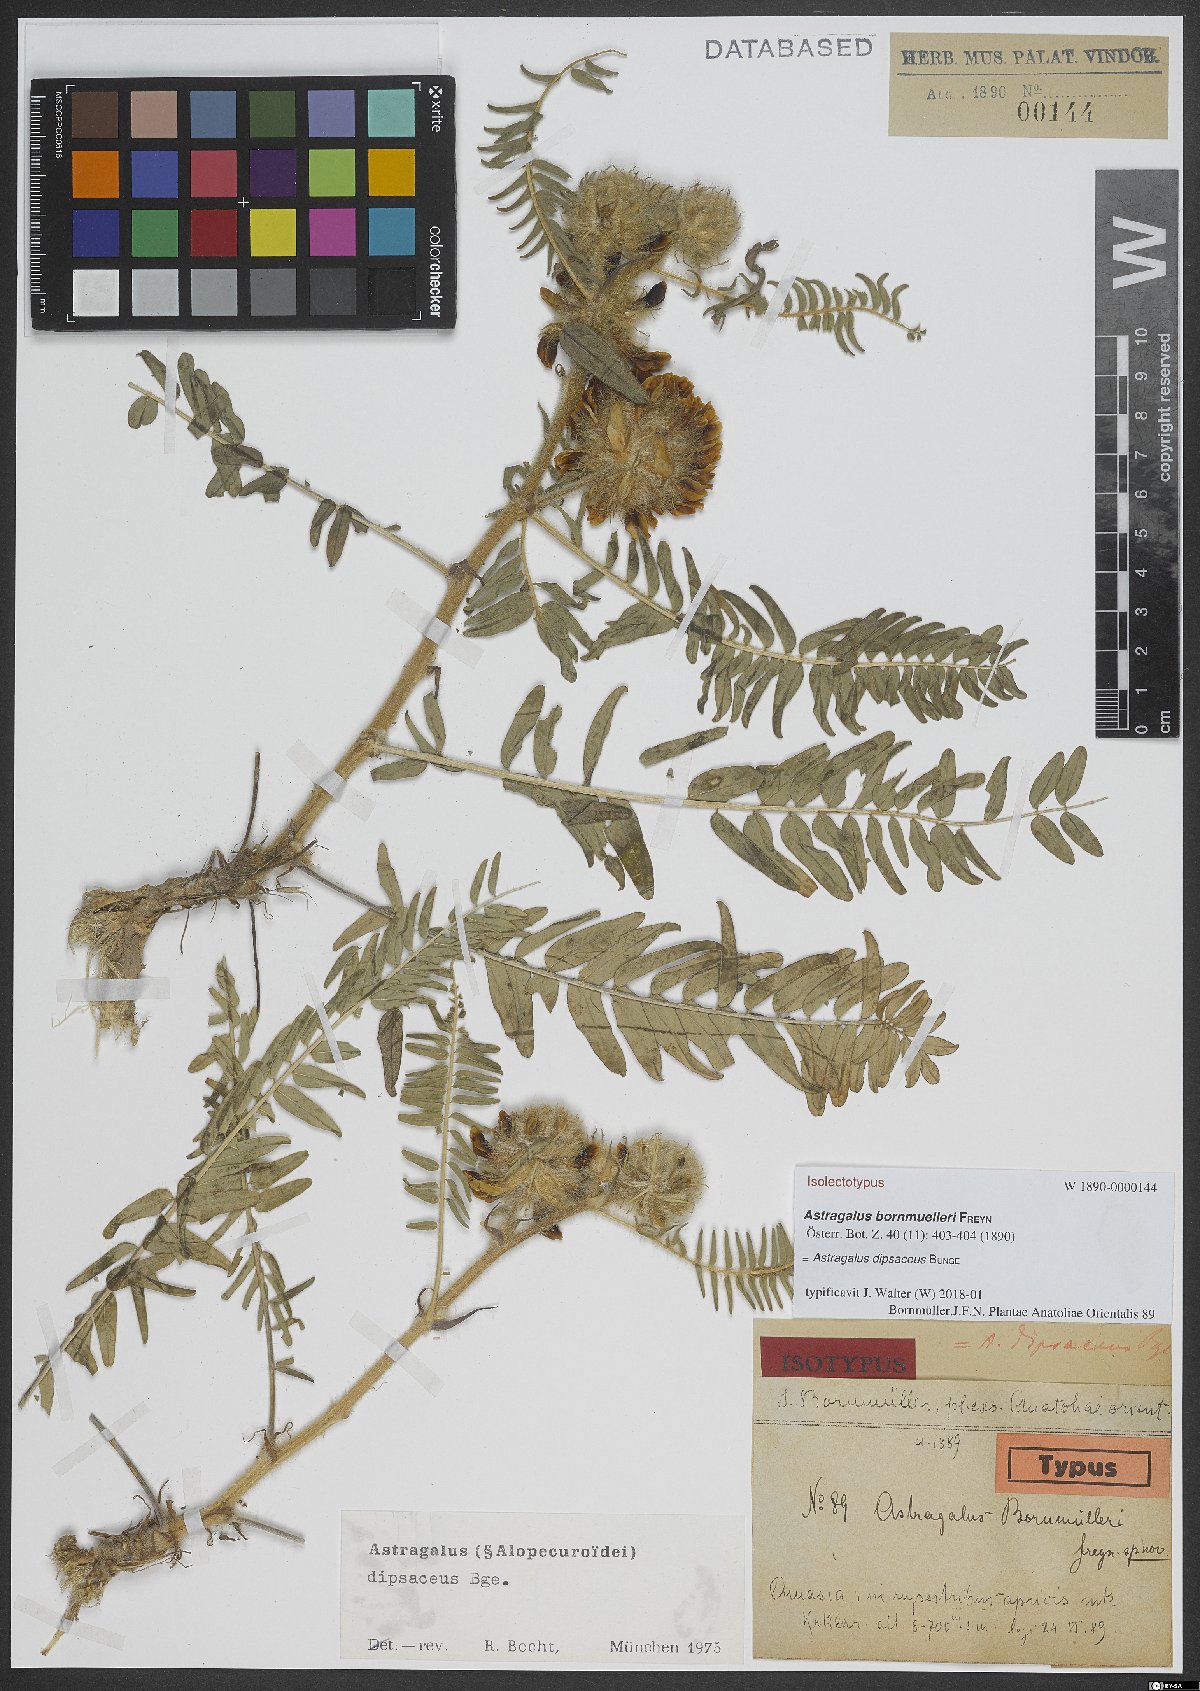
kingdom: Plantae
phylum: Tracheophyta
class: Magnoliopsida
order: Fabales
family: Fabaceae
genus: Astragalus
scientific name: Astragalus dipsaceus
